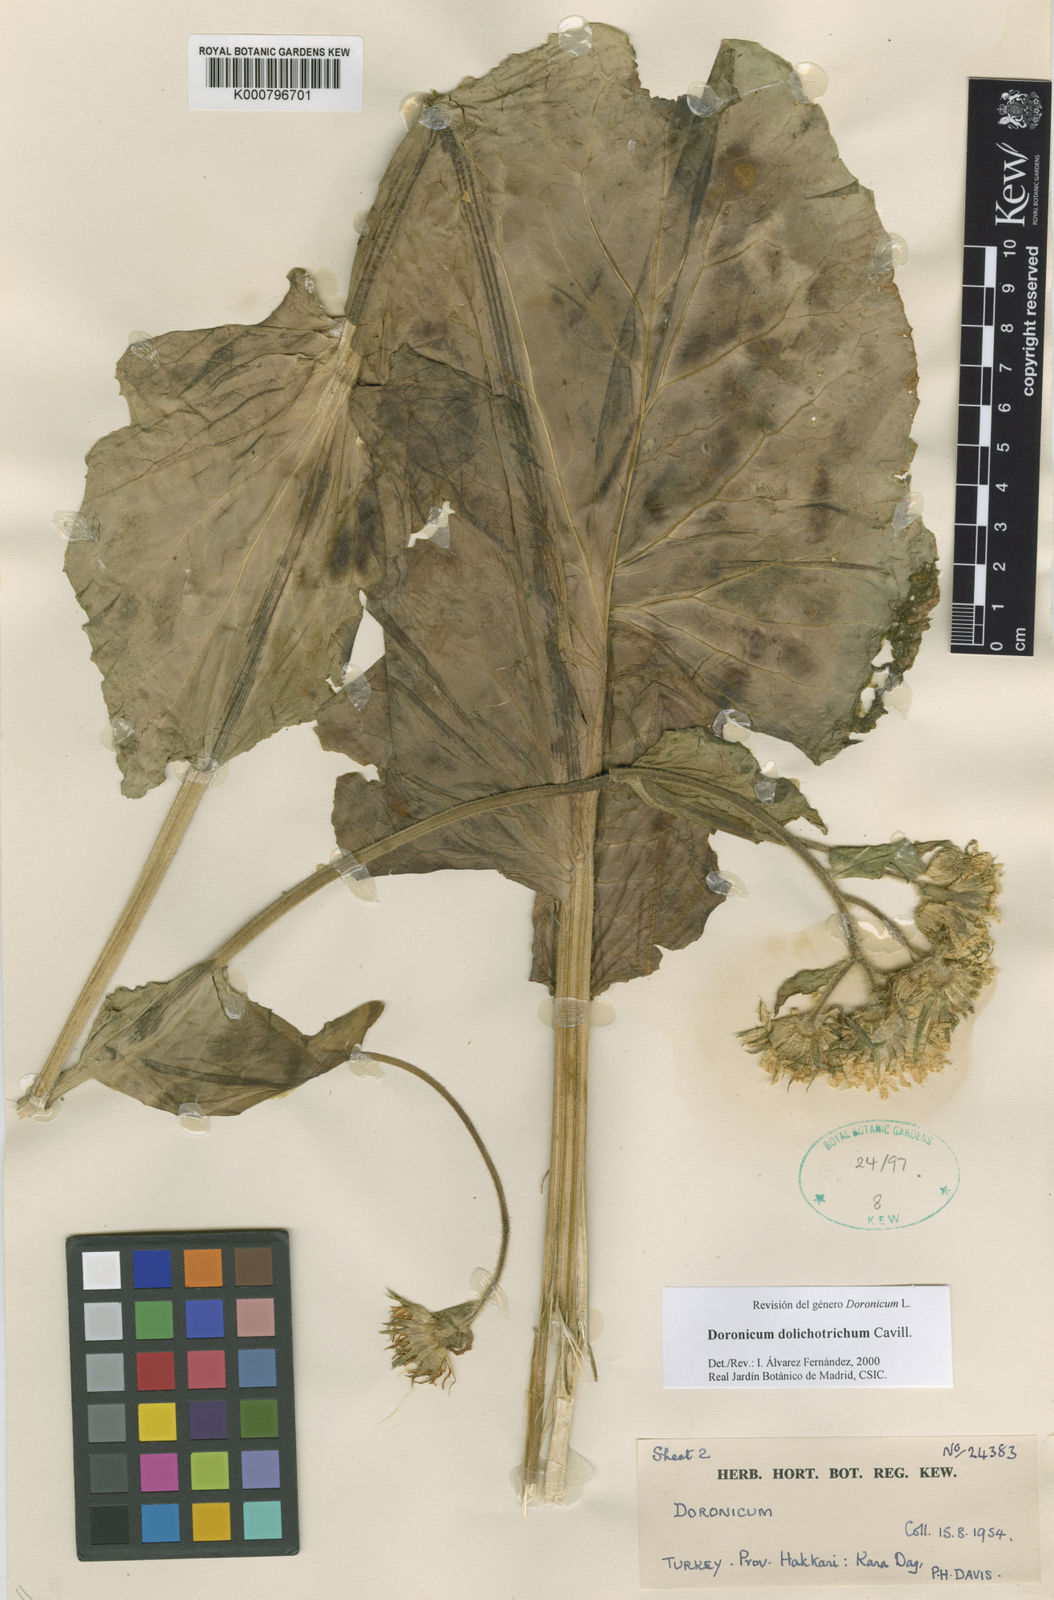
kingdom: Plantae
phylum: Tracheophyta
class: Magnoliopsida
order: Asterales
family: Asteraceae
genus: Doronicum
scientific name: Doronicum dolichotrichum
